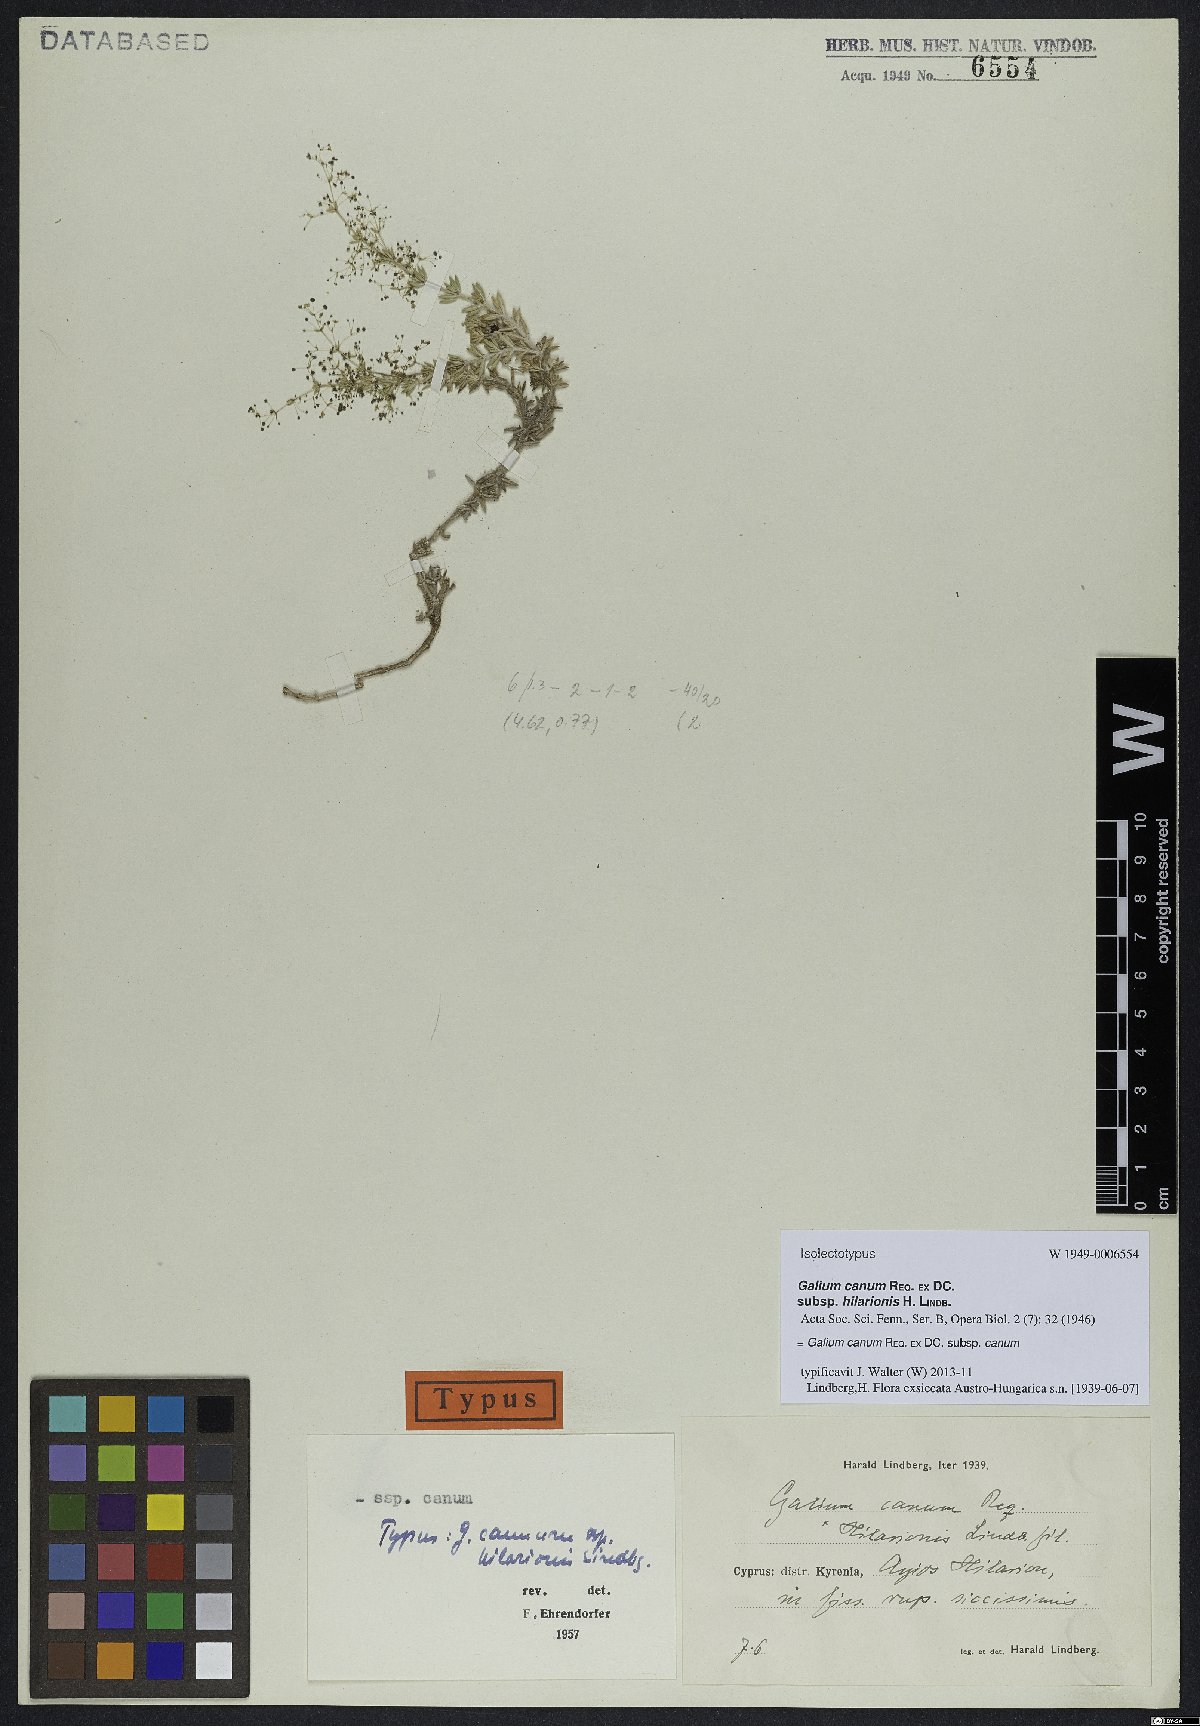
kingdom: Plantae
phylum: Tracheophyta
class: Magnoliopsida
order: Gentianales
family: Rubiaceae
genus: Galium
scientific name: Galium canum
